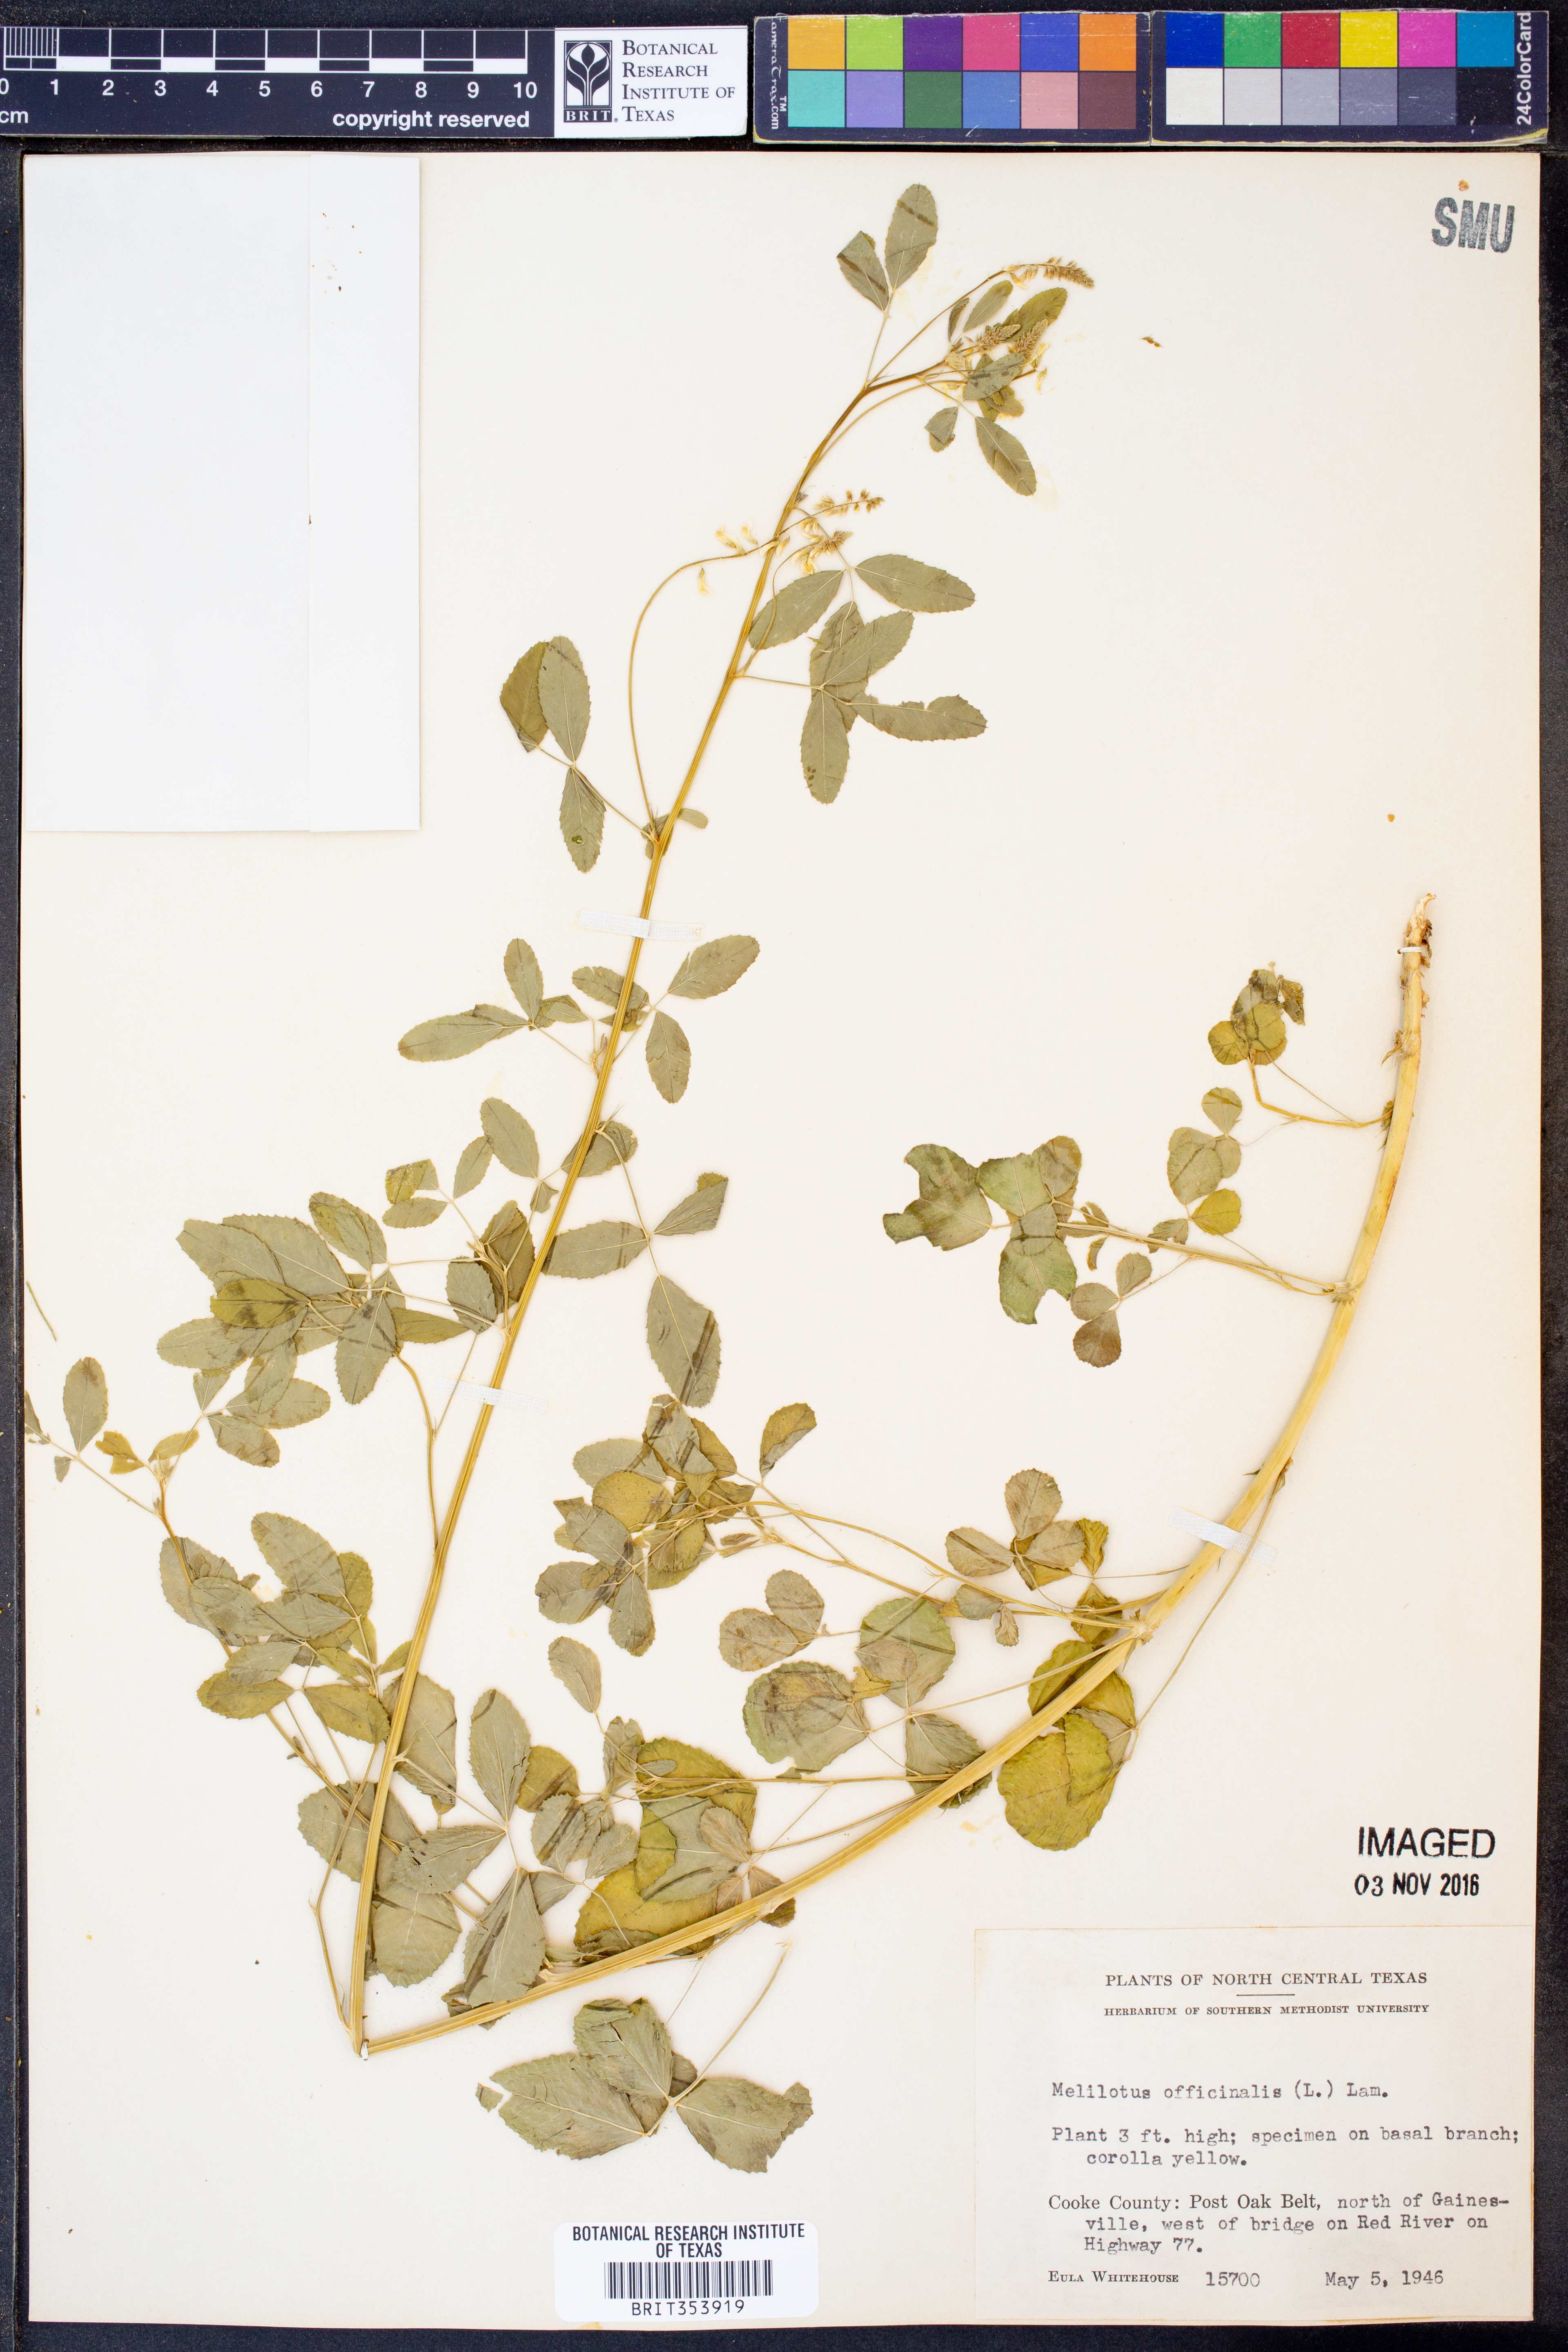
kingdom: Plantae
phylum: Tracheophyta
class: Magnoliopsida
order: Fabales
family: Fabaceae
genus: Melilotus
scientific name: Melilotus officinalis
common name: Sweetclover
